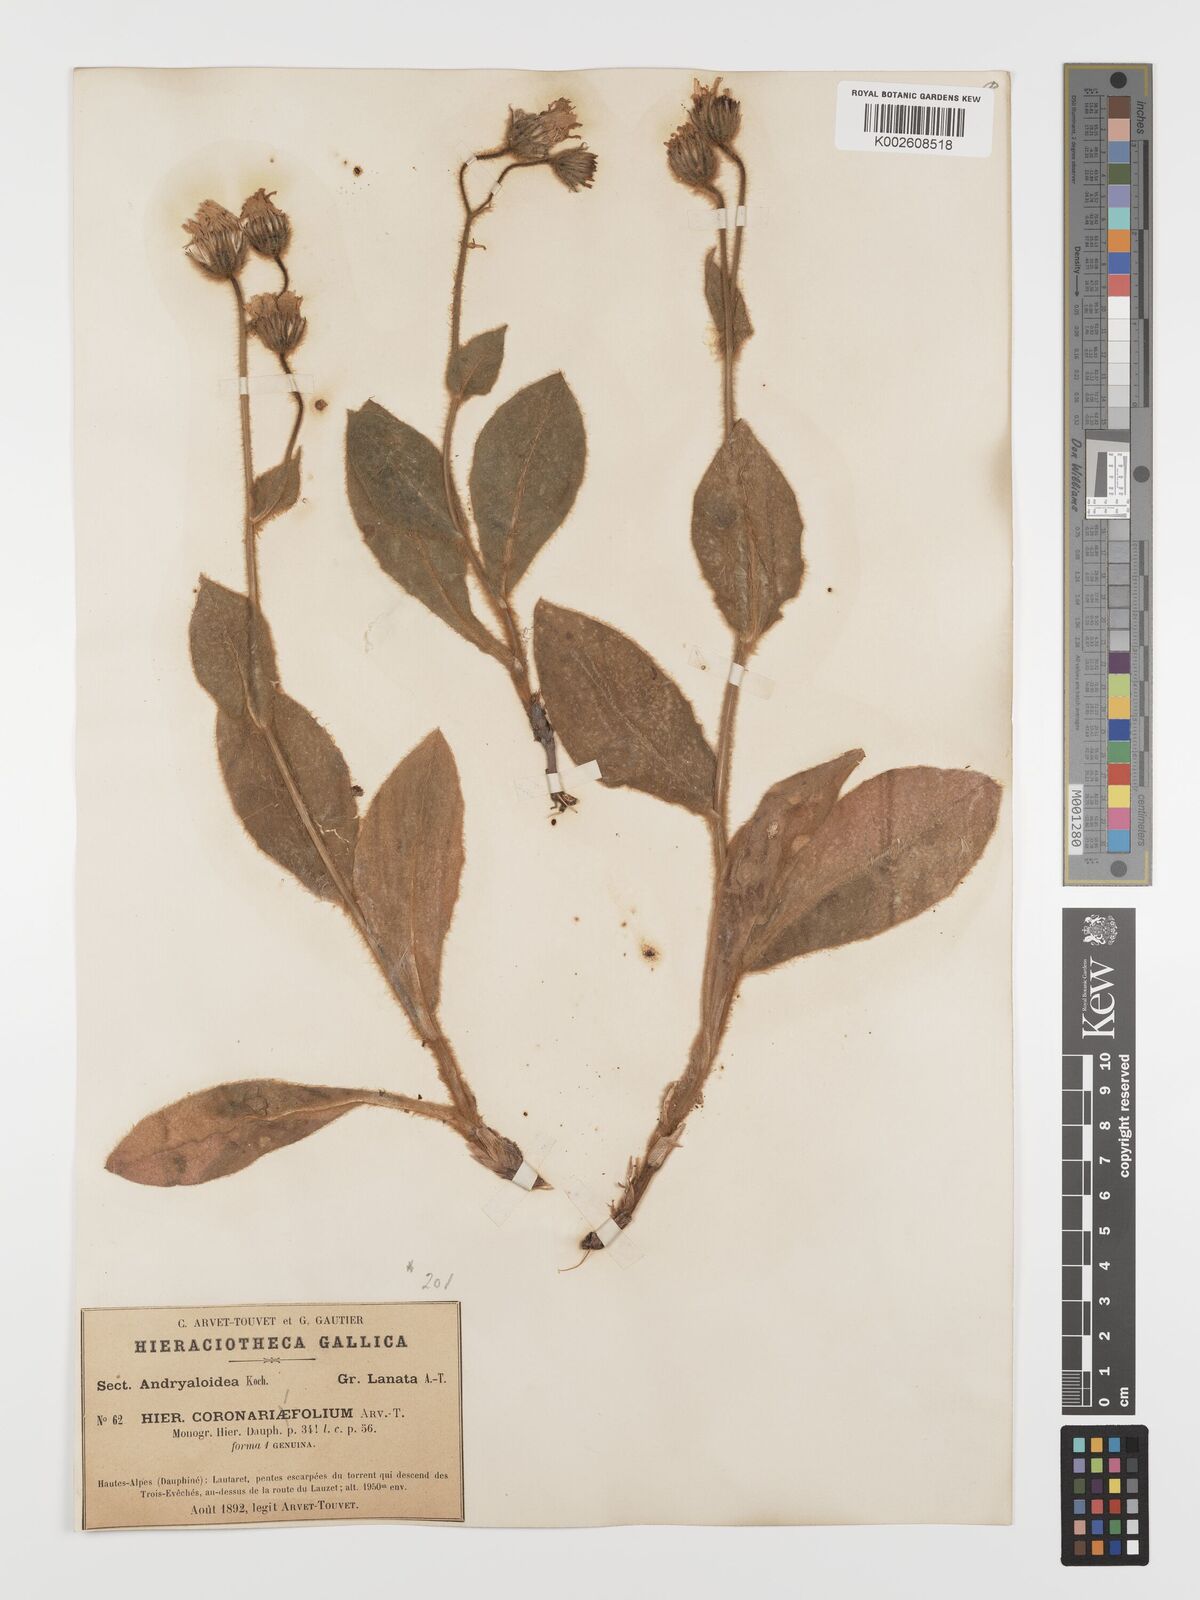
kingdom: Plantae
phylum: Tracheophyta
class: Magnoliopsida
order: Asterales
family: Asteraceae
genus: Hieracium
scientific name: Hieracium coronariifolium
